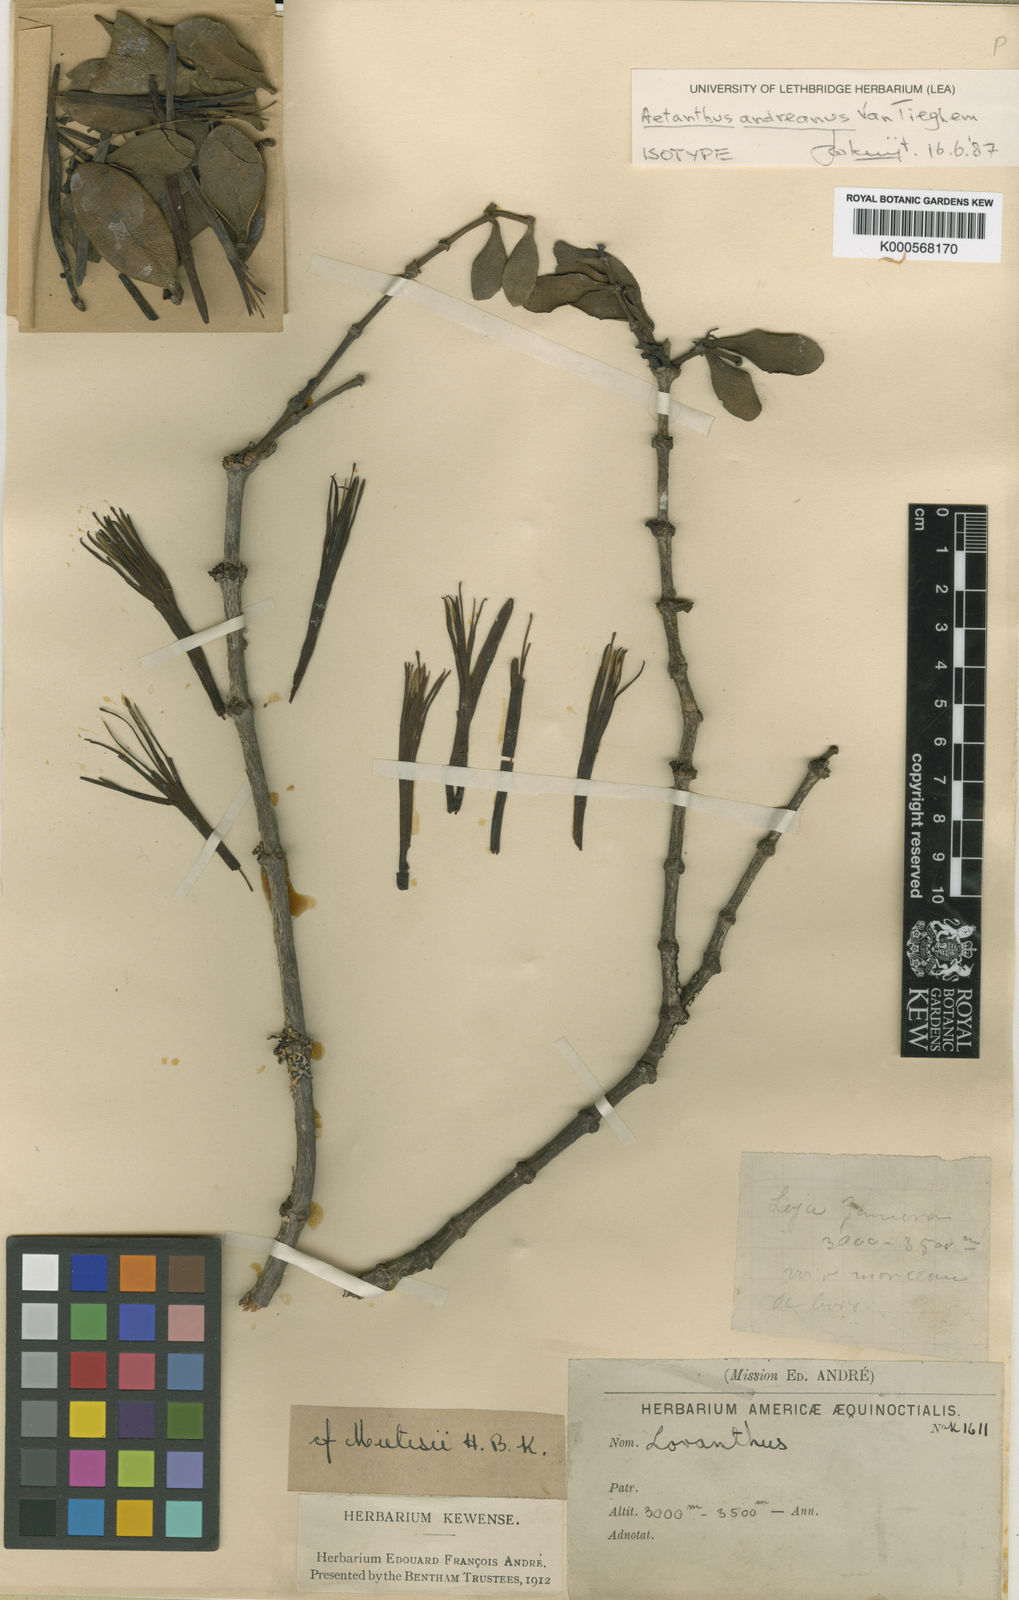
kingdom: Plantae
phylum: Tracheophyta
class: Magnoliopsida
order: Santalales
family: Loranthaceae
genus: Aetanthus
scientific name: Aetanthus andreanus
